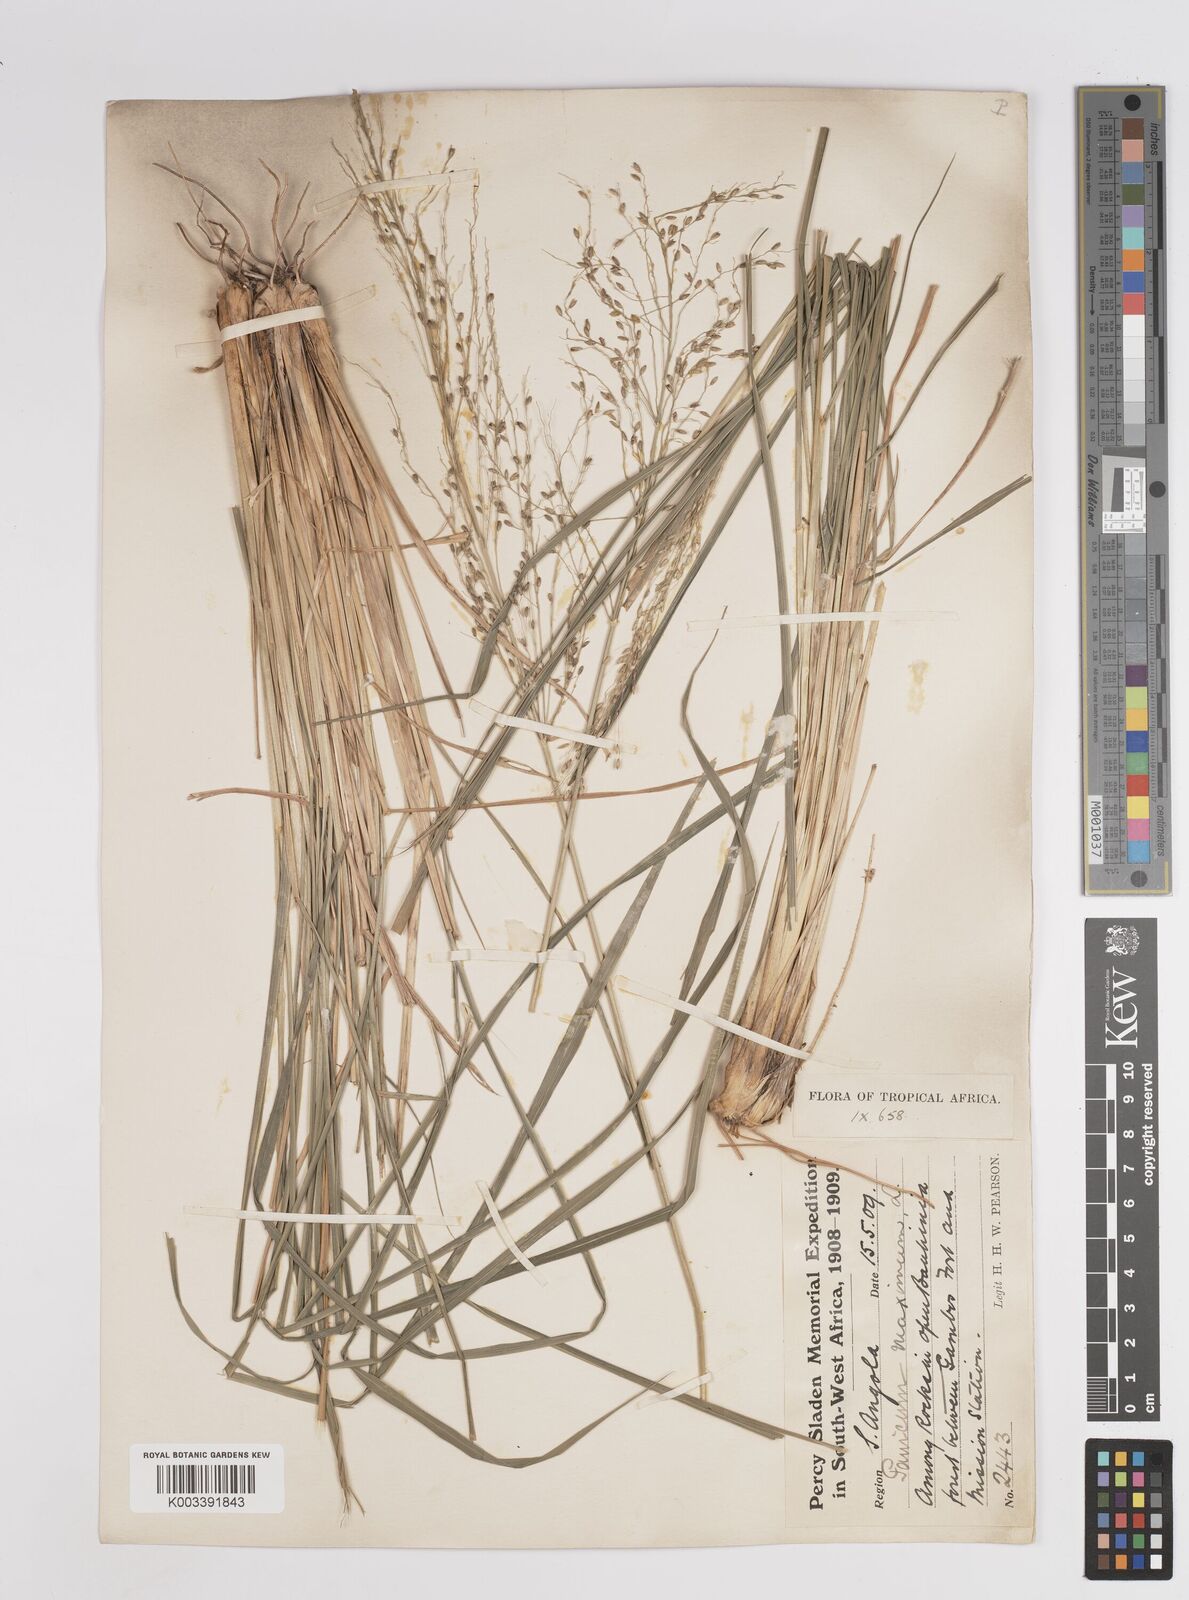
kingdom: Plantae
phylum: Tracheophyta
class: Liliopsida
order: Poales
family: Poaceae
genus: Megathyrsus
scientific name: Megathyrsus maximus
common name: Guineagrass
